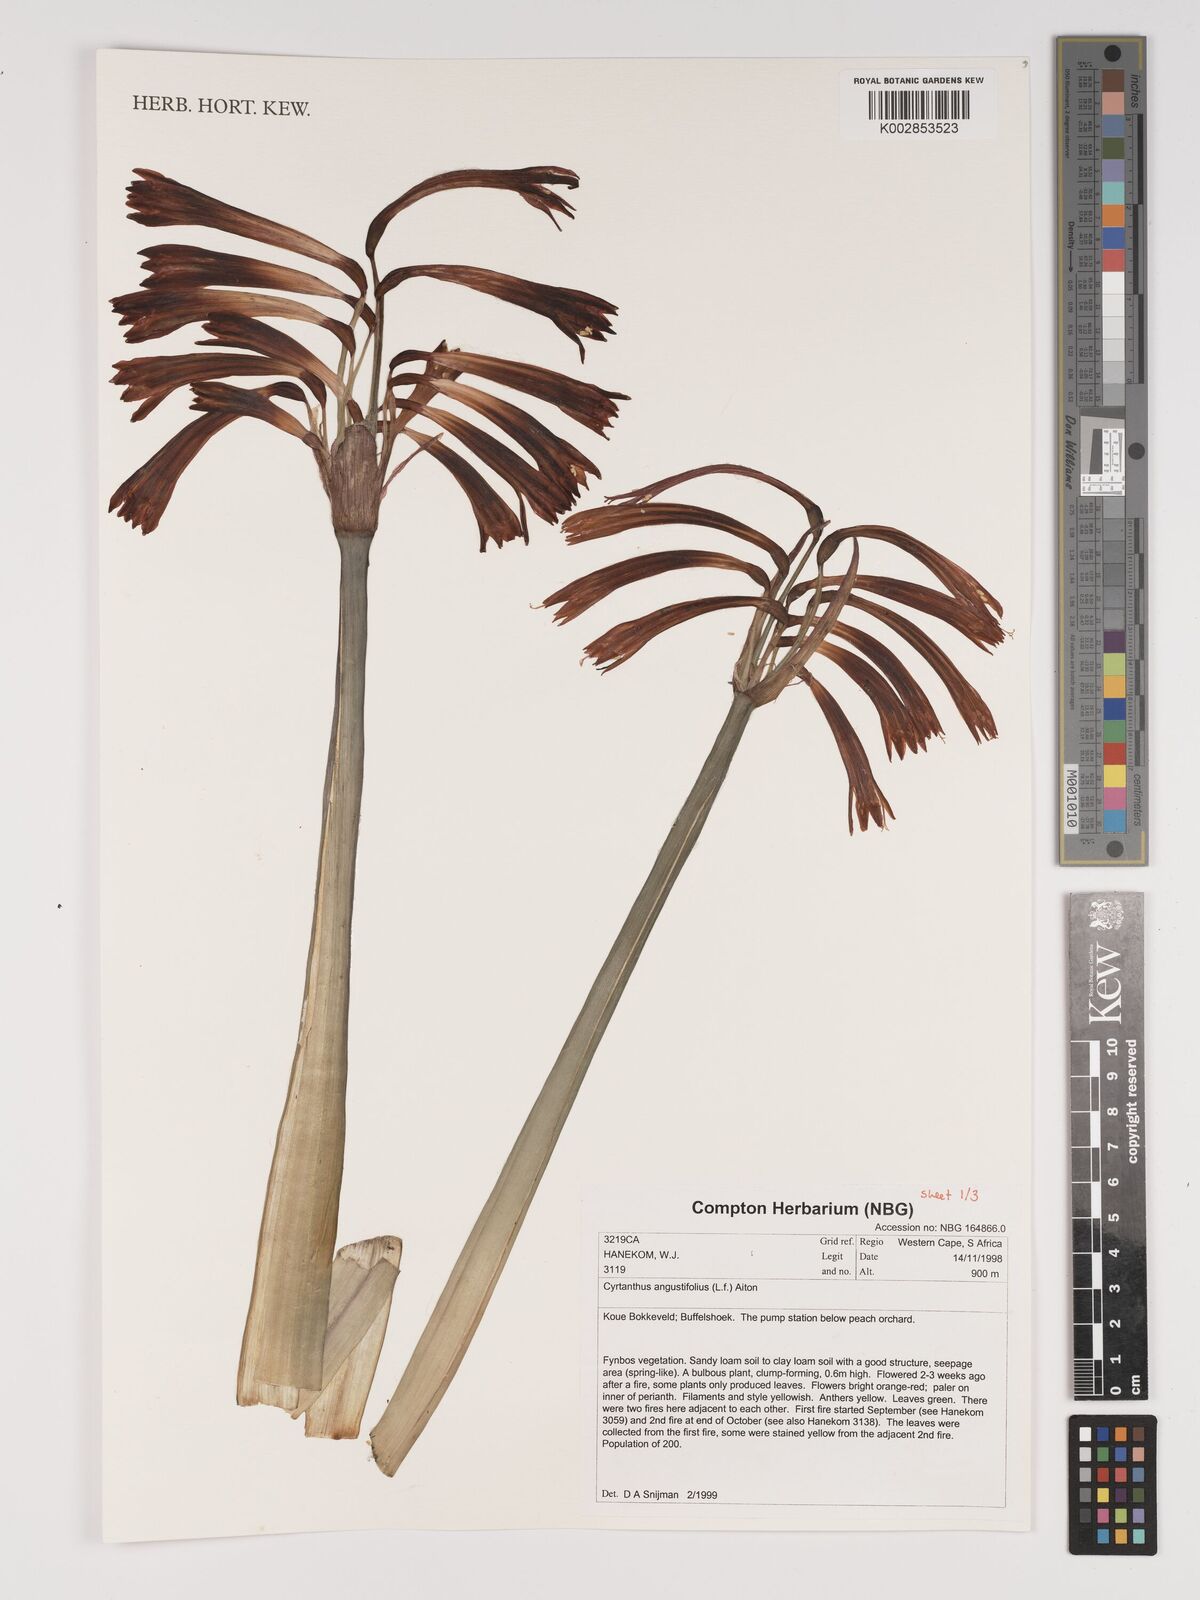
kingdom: Plantae
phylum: Tracheophyta
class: Liliopsida
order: Asparagales
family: Amaryllidaceae
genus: Cyrtanthus
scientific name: Cyrtanthus angustifolius
